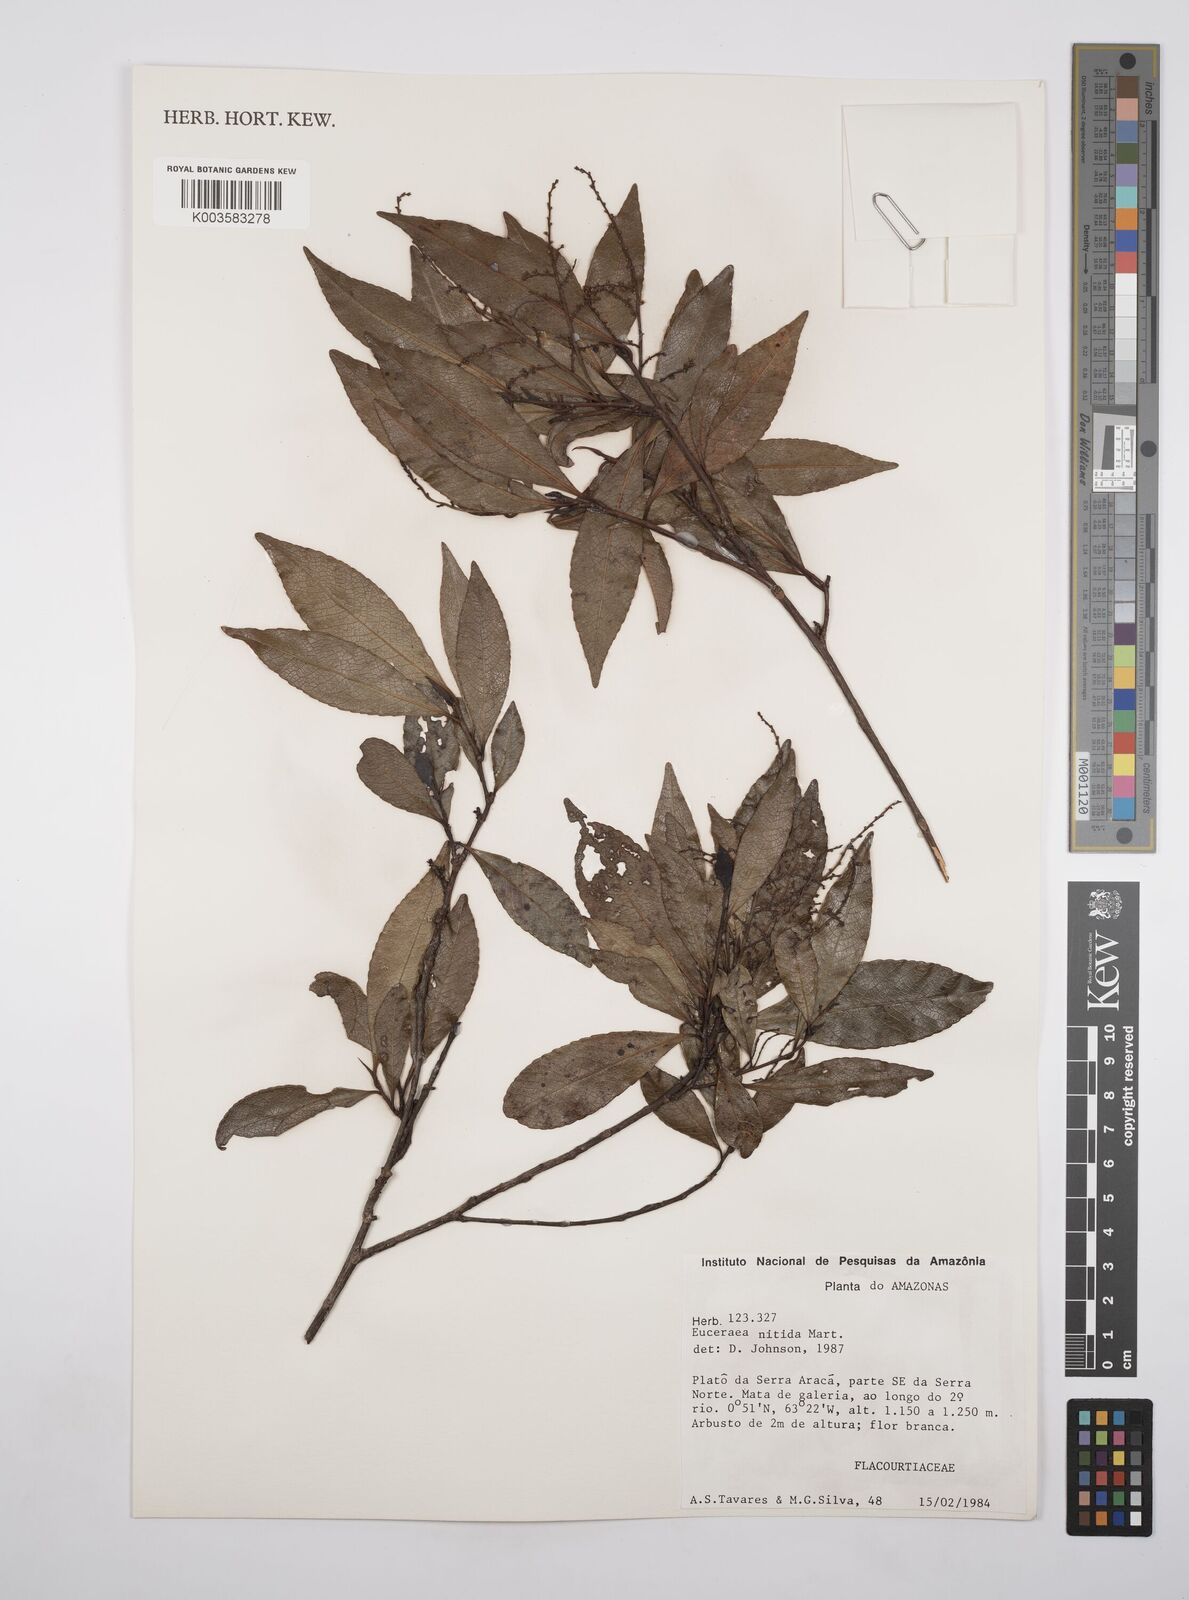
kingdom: Plantae
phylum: Tracheophyta
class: Magnoliopsida
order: Malpighiales
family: Salicaceae
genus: Casearia
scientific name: Casearia euceraea
